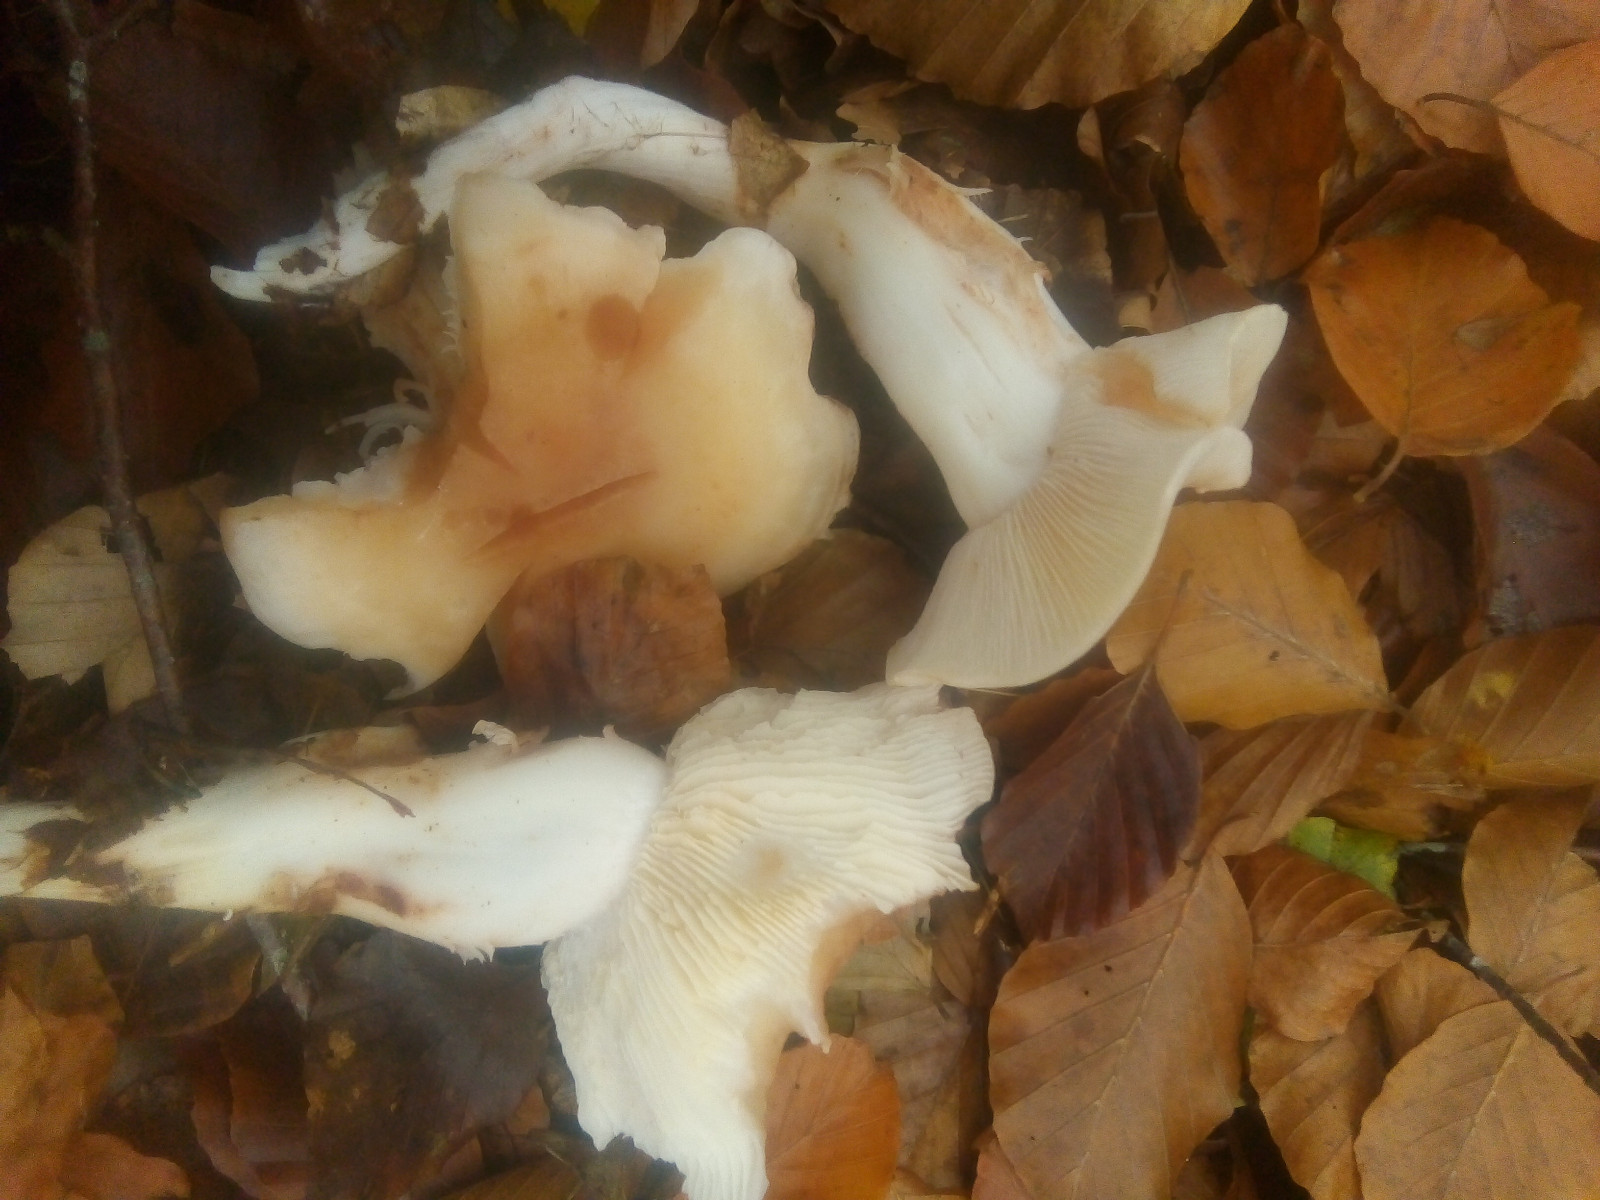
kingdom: Fungi
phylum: Basidiomycota
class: Agaricomycetes
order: Agaricales
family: Omphalotaceae
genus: Rhodocollybia
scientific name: Rhodocollybia maculata
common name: plettet fladhat
